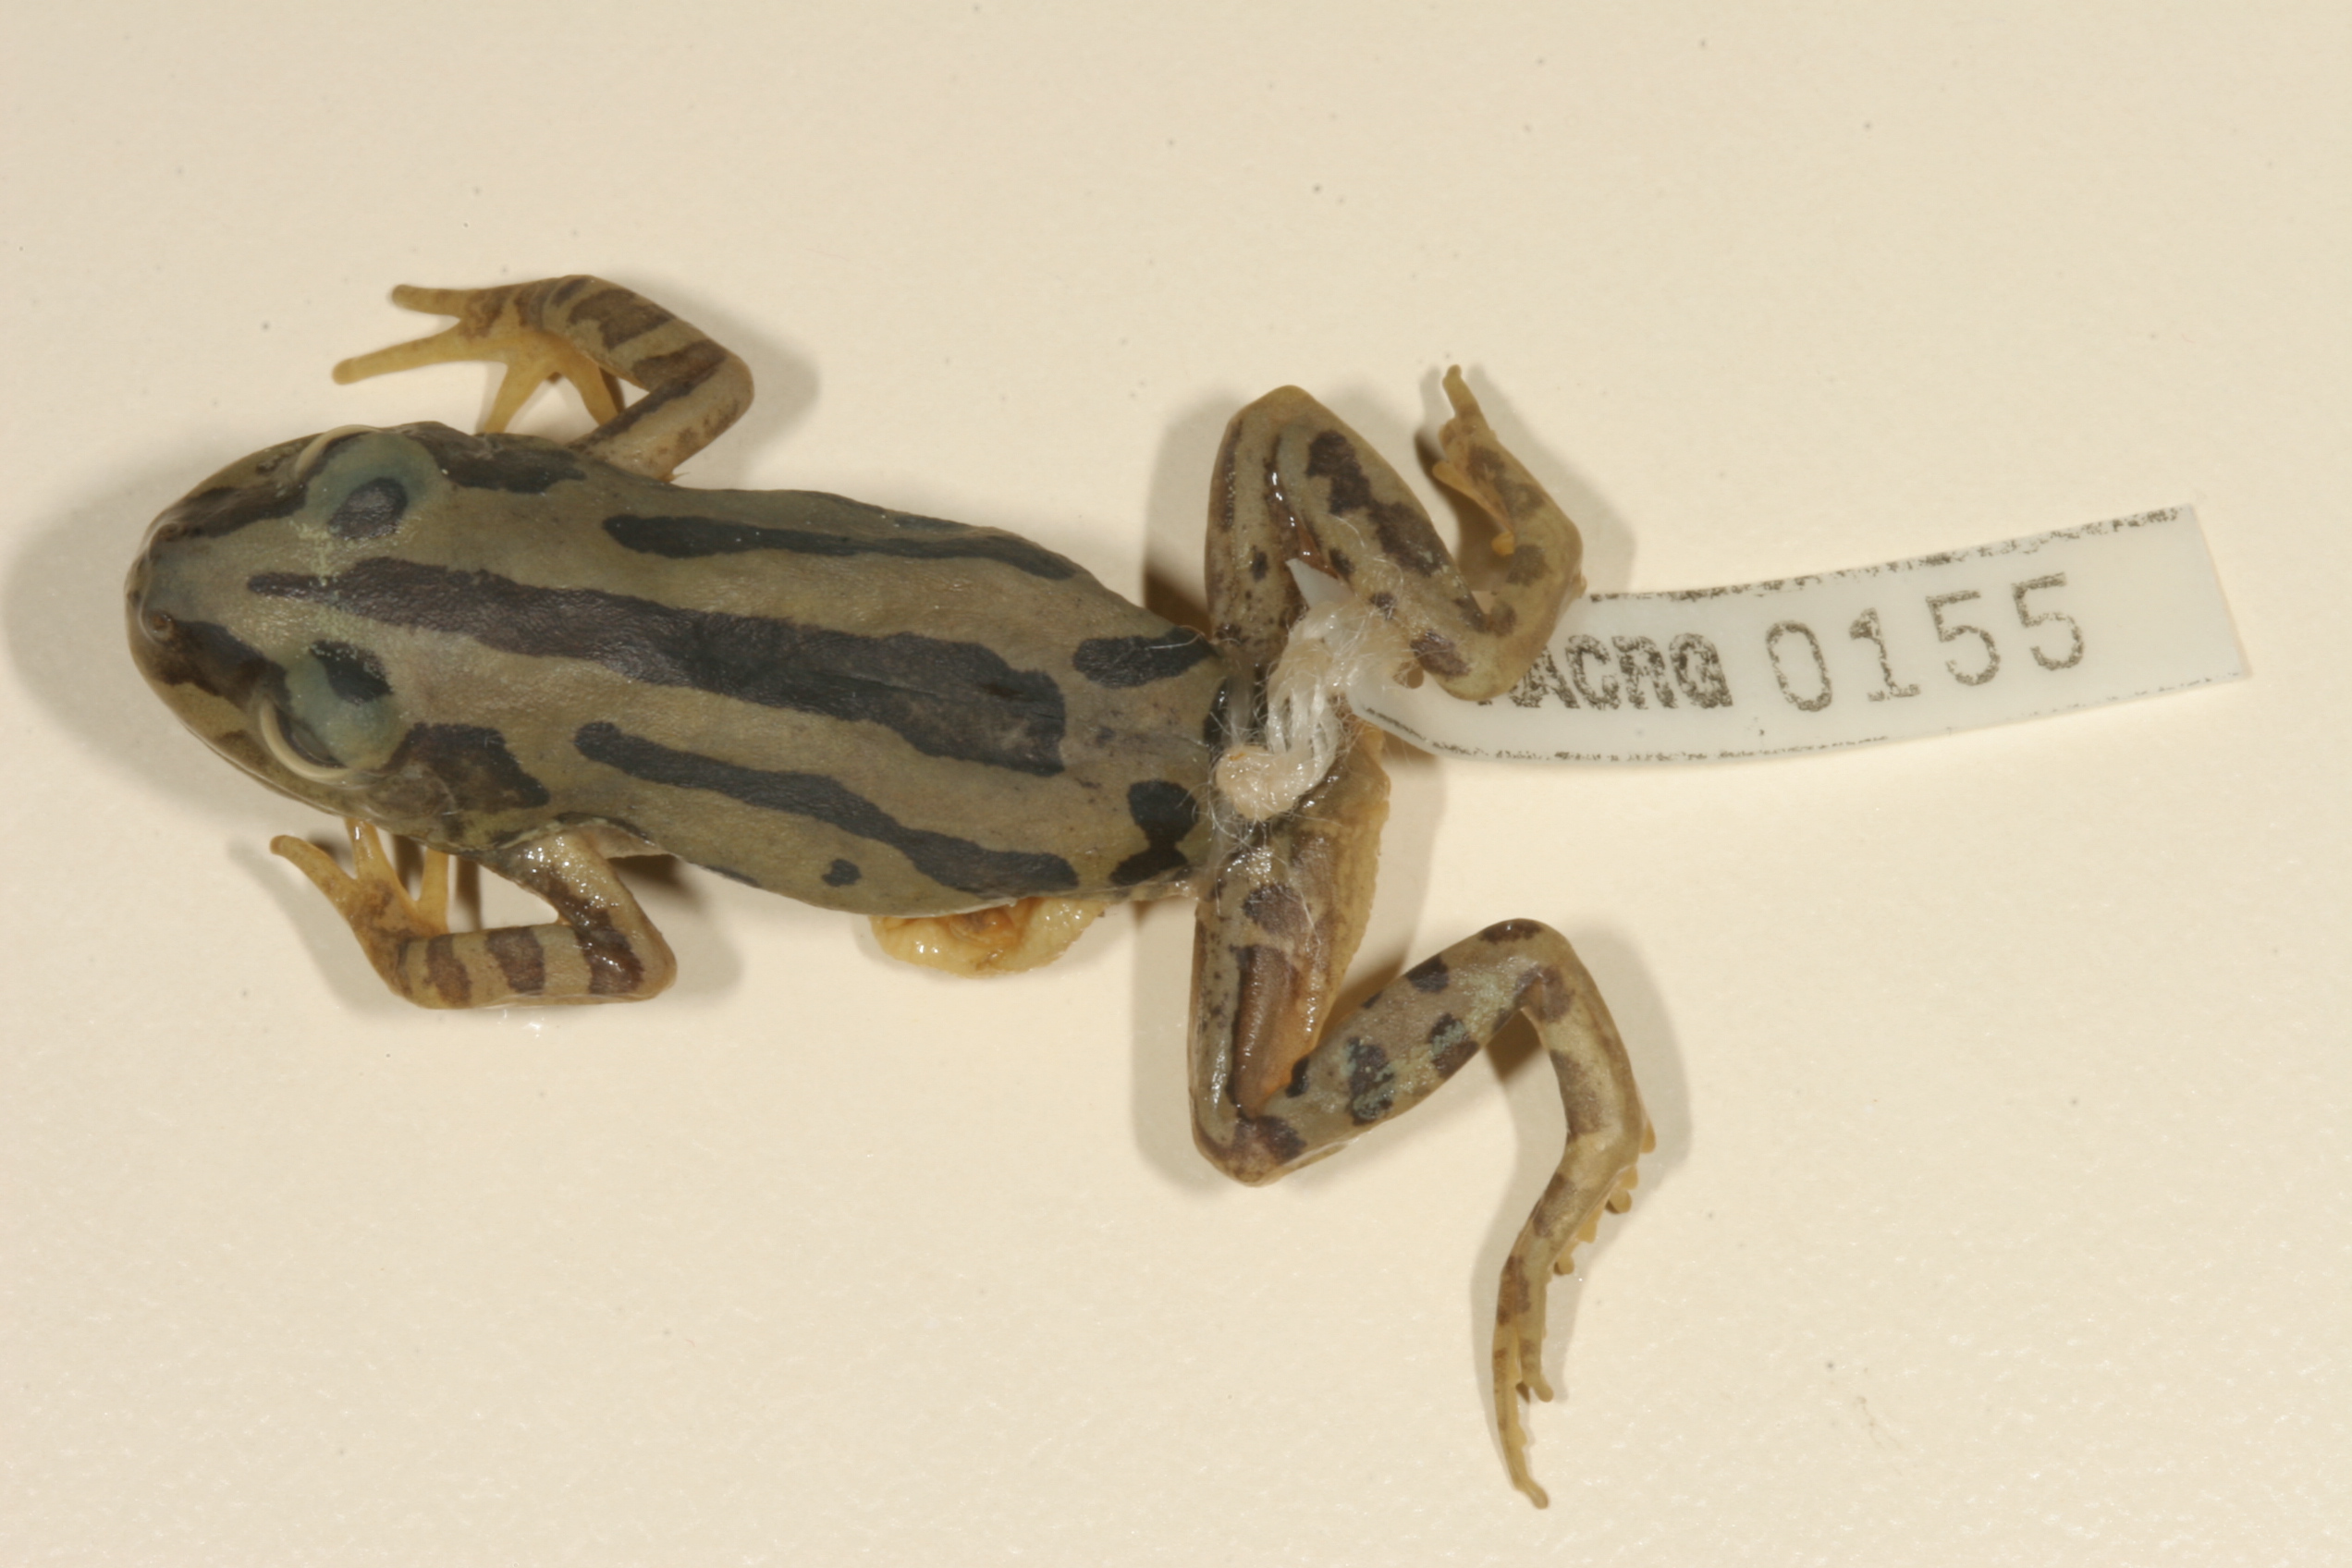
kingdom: Animalia
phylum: Chordata
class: Amphibia
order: Anura
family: Hyperoliidae
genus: Kassina
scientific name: Kassina senegalensis
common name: Senegal land frog
